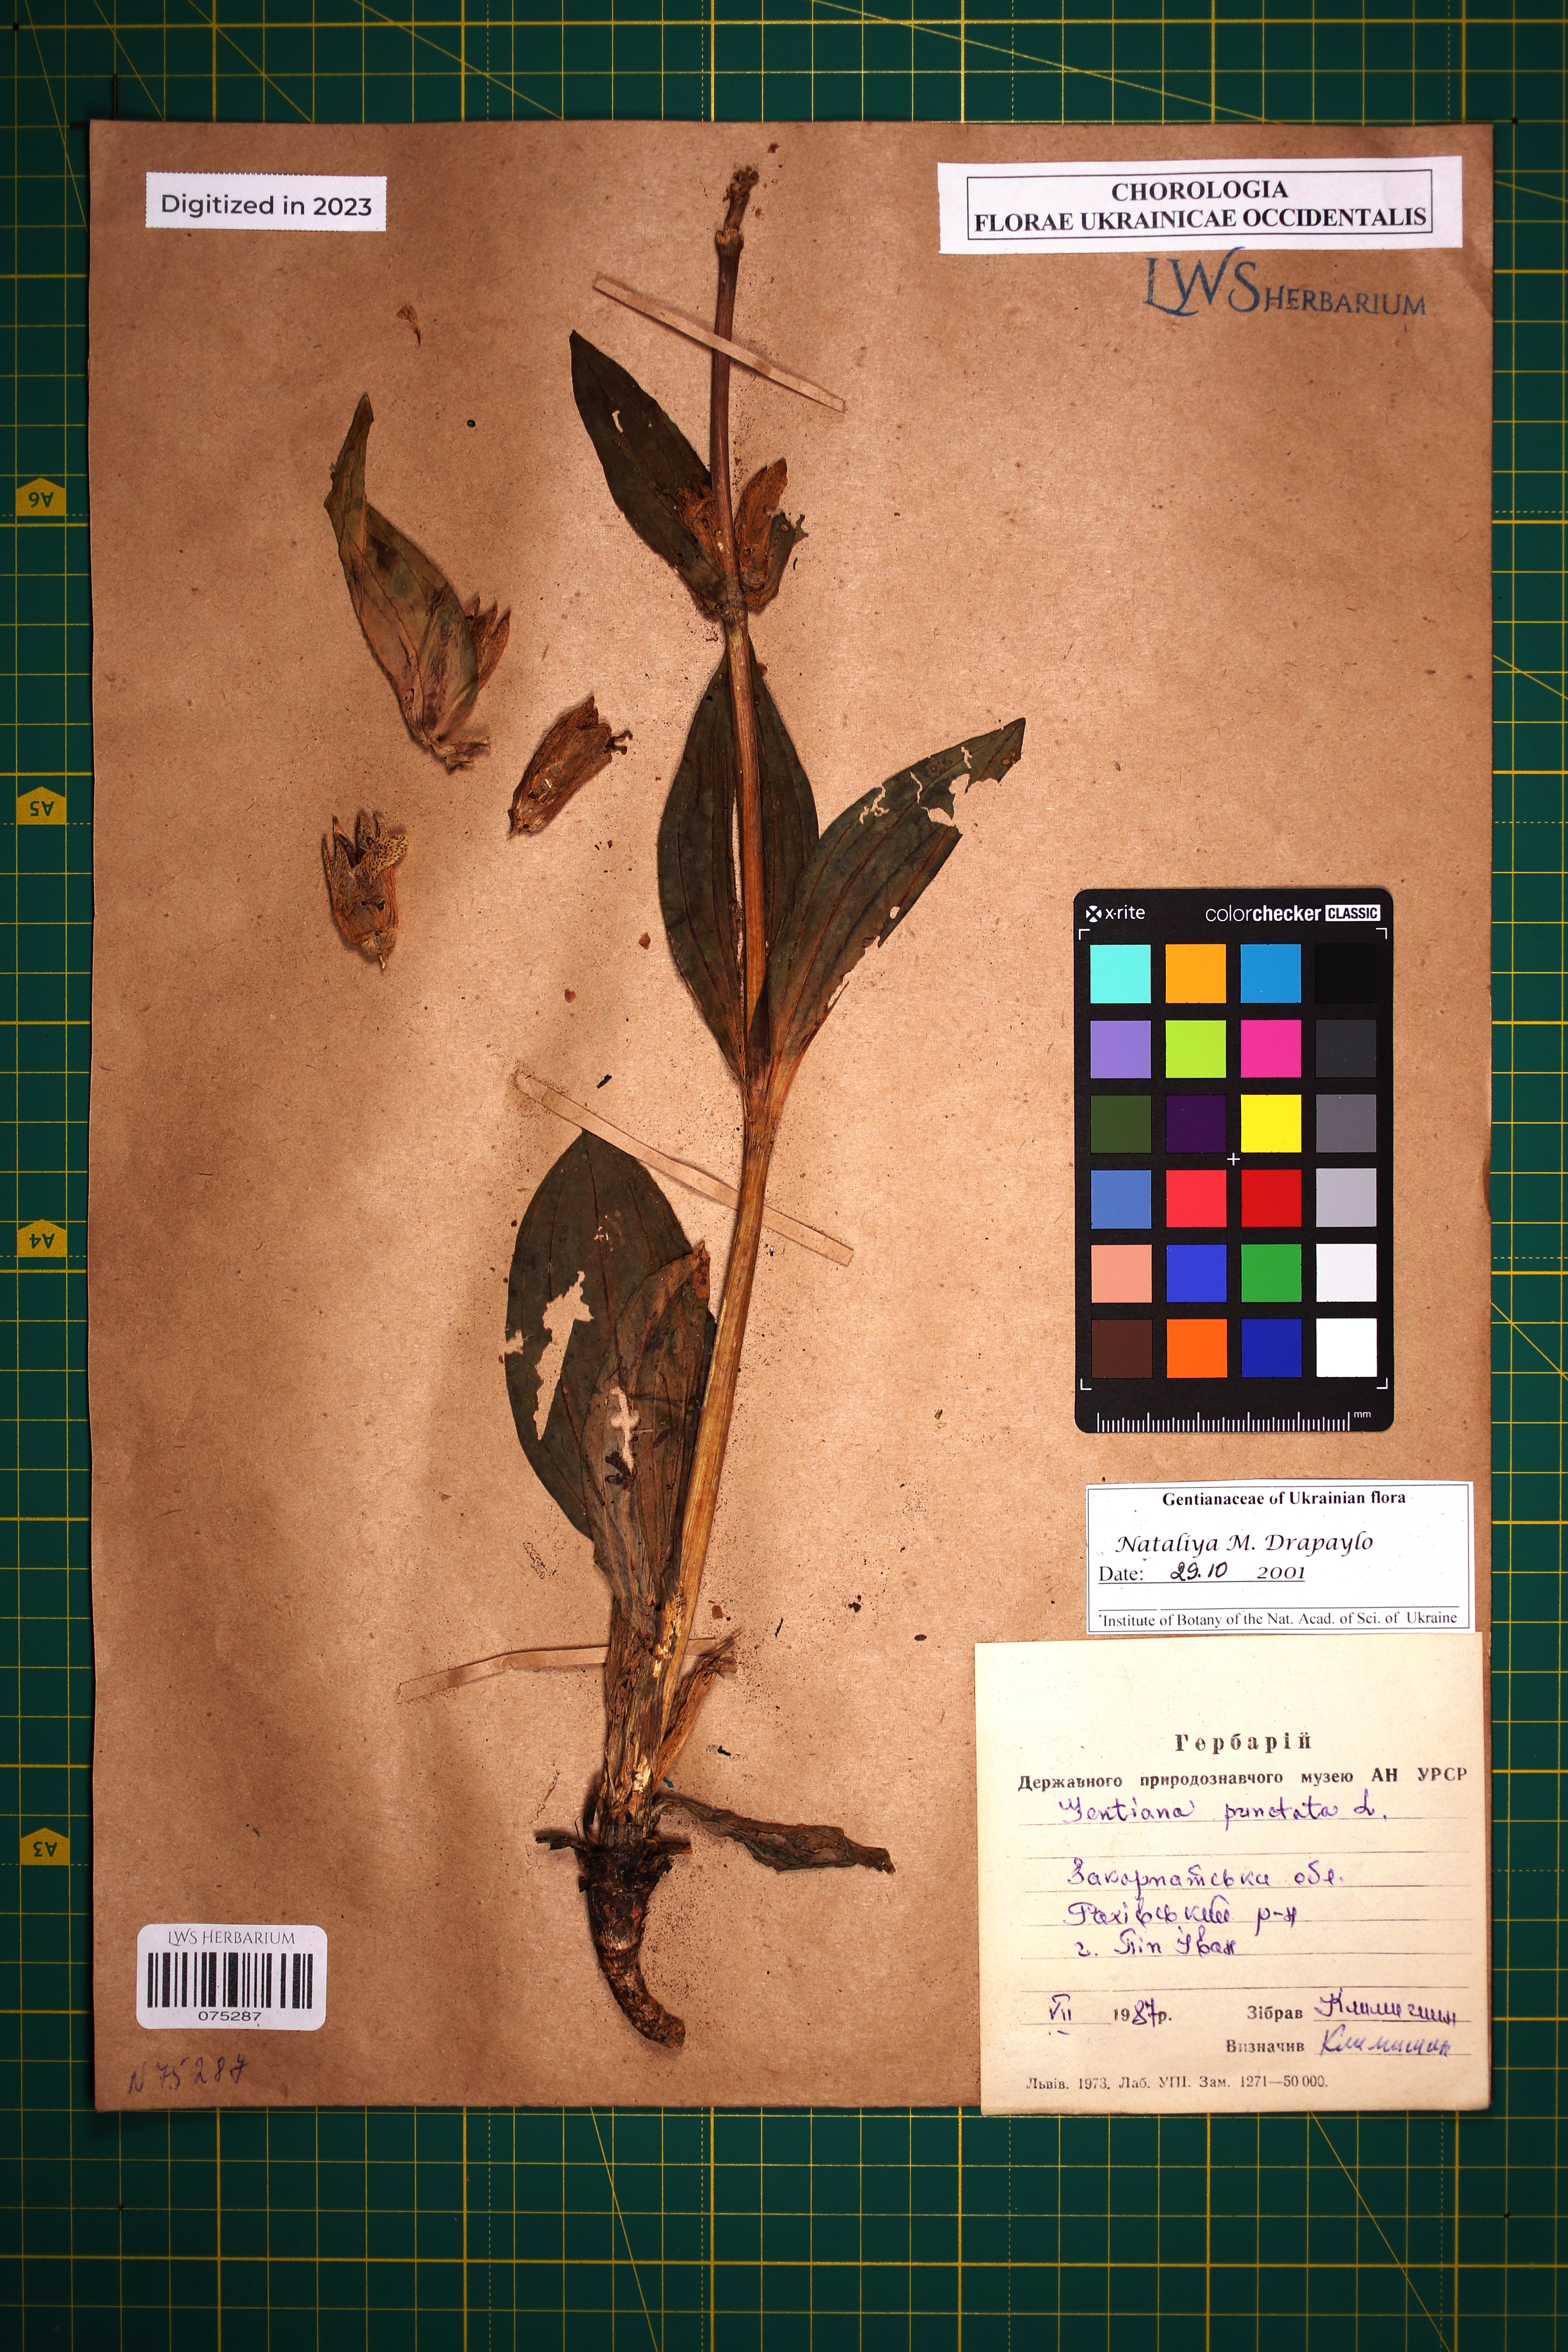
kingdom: Plantae
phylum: Tracheophyta
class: Magnoliopsida
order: Gentianales
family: Gentianaceae
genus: Gentiana
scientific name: Gentiana punctata
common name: Spotted gentian
